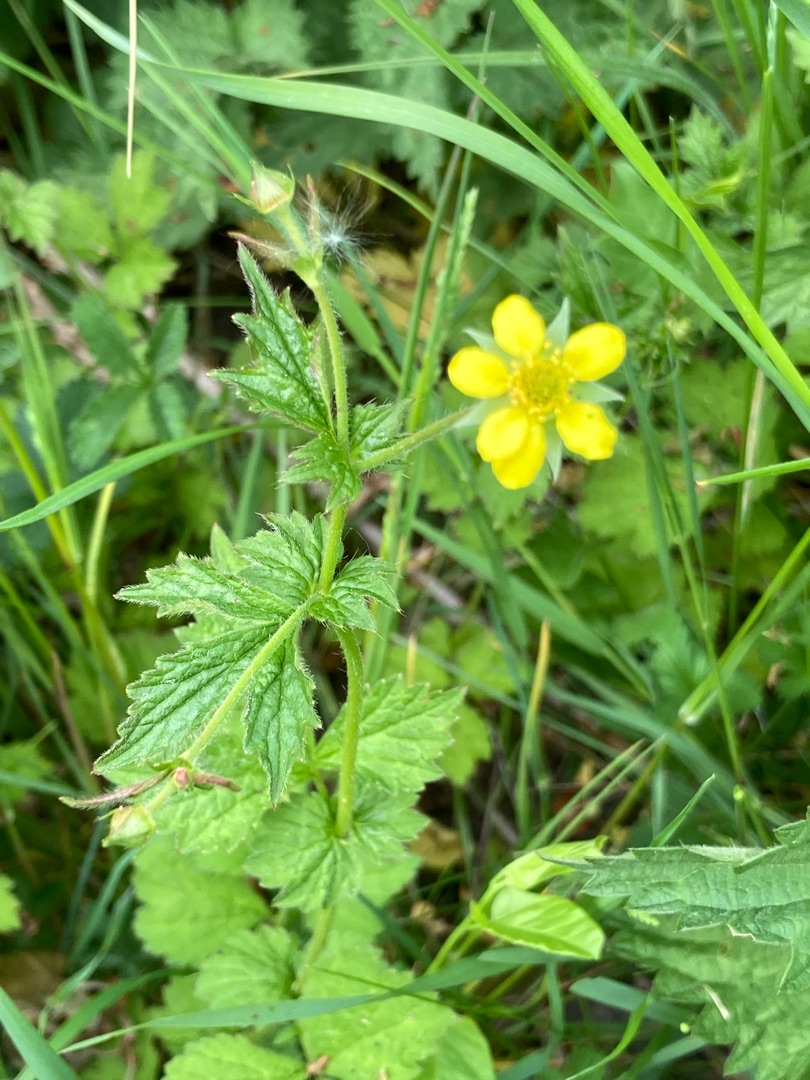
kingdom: Plantae
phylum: Tracheophyta
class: Magnoliopsida
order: Rosales
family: Rosaceae
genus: Geum
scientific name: Geum urbanum
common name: Feber-nellikerod
